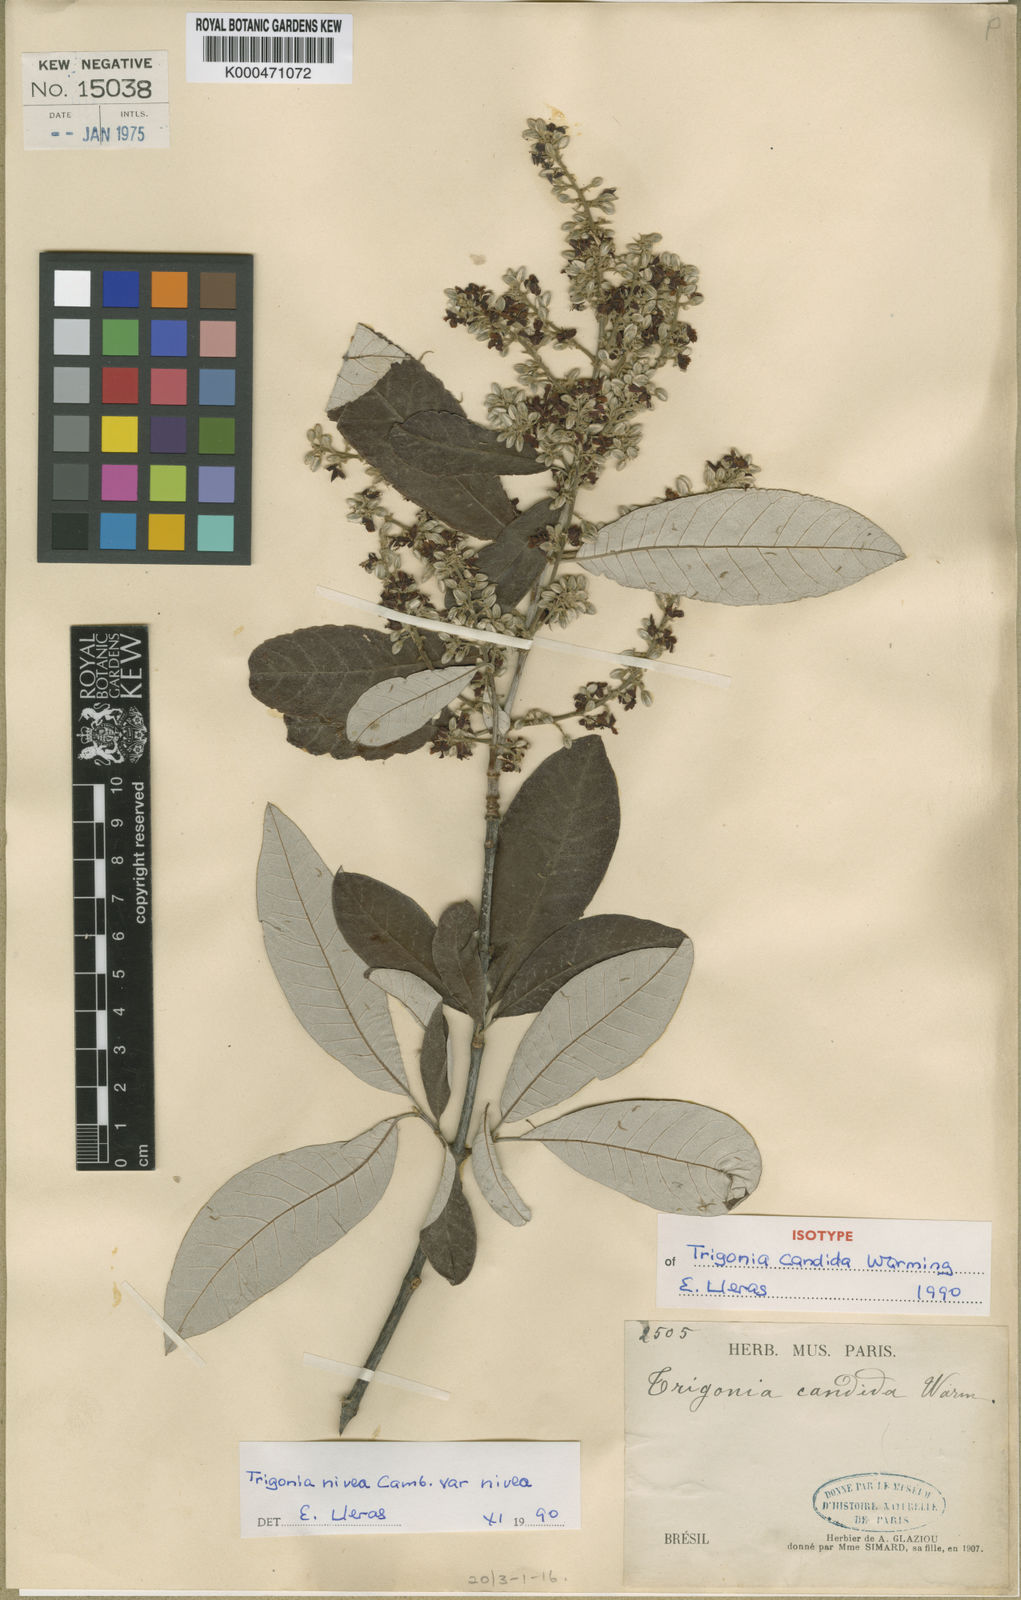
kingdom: Plantae
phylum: Tracheophyta
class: Magnoliopsida
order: Malpighiales
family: Trigoniaceae
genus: Trigonia
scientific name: Trigonia
